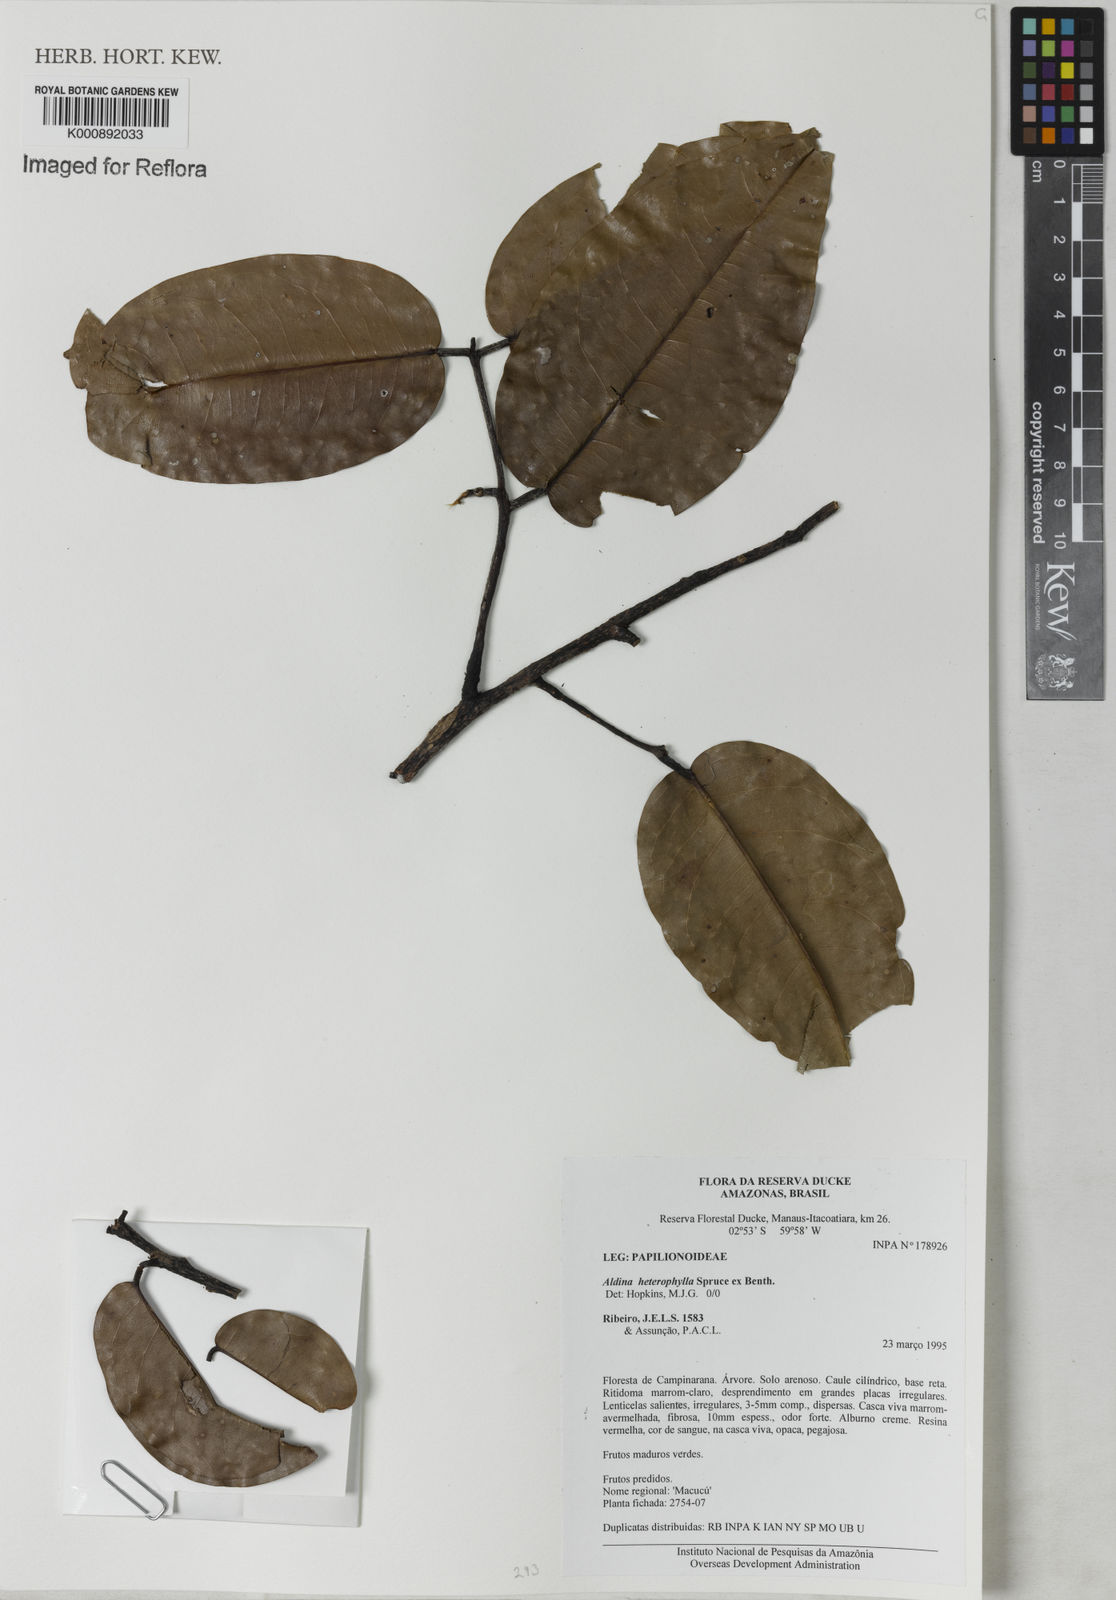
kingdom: Plantae
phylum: Tracheophyta
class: Magnoliopsida
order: Fabales
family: Fabaceae
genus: Aldina
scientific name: Aldina heterophylla
